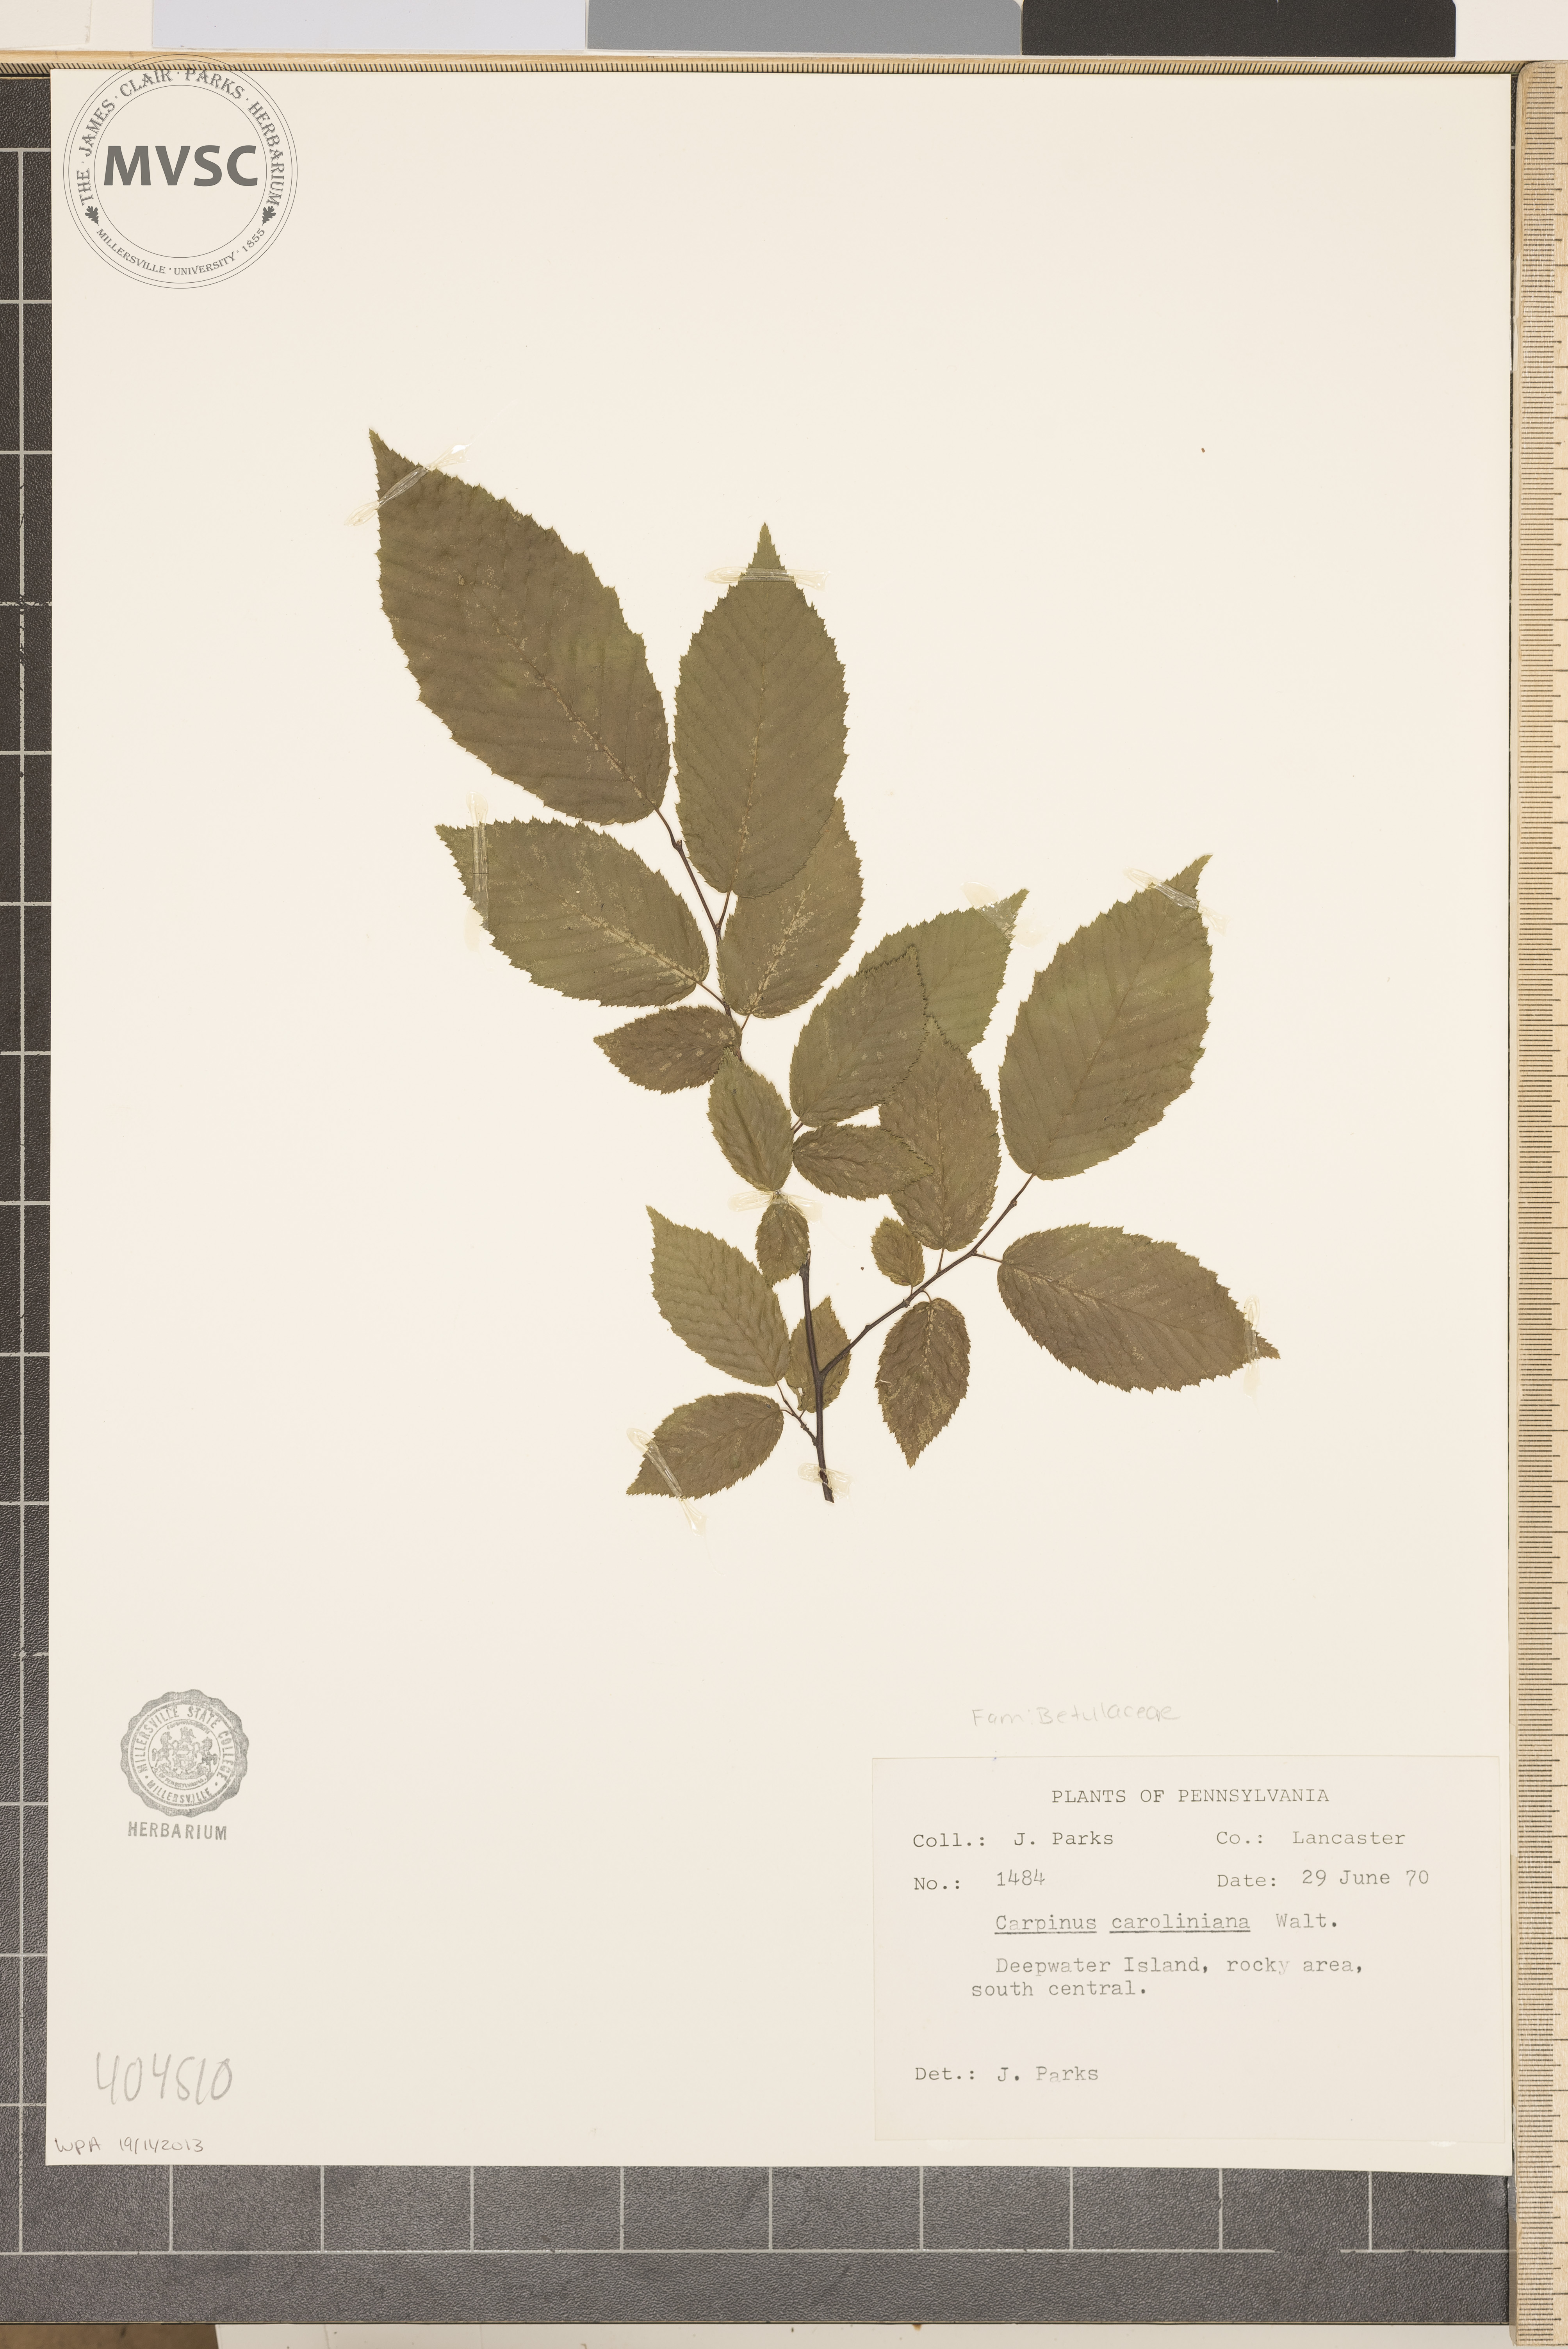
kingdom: Plantae
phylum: Tracheophyta
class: Magnoliopsida
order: Fagales
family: Betulaceae
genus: Carpinus
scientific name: Carpinus caroliniana
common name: American hornbeam
